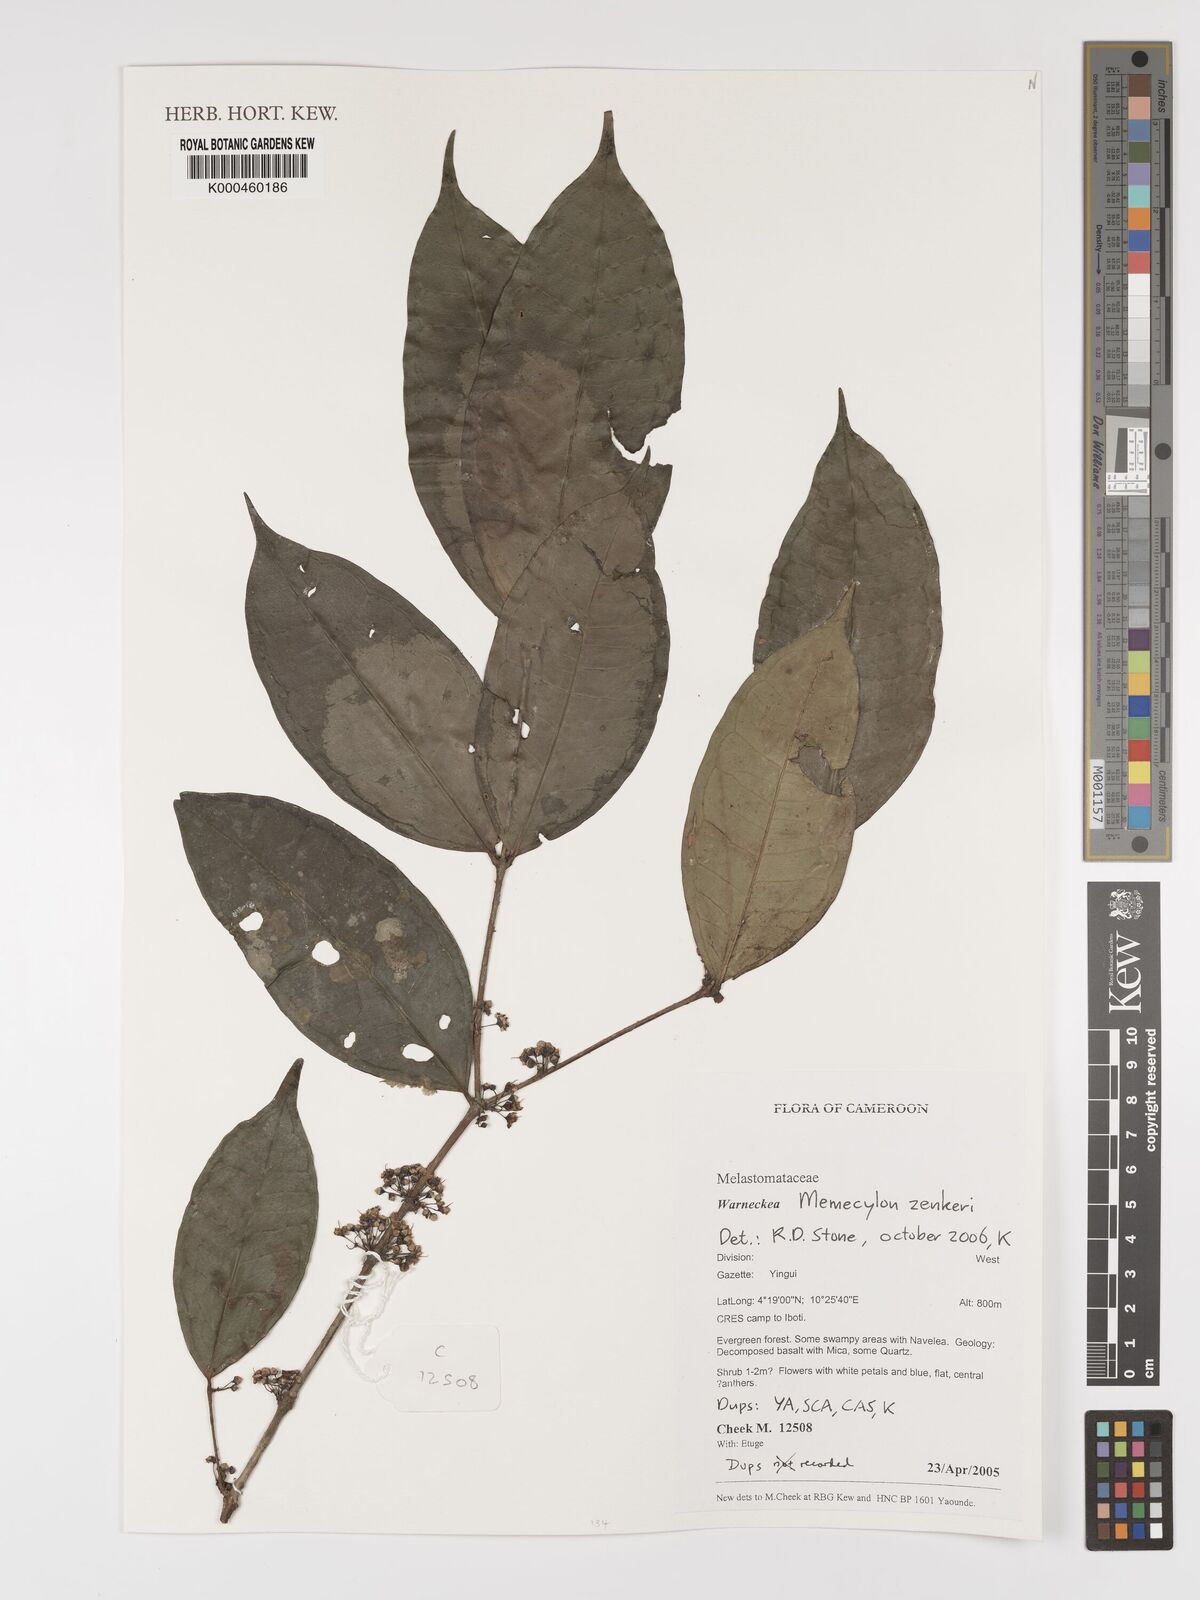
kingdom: Plantae
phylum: Tracheophyta
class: Magnoliopsida
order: Myrtales
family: Melastomataceae
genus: Memecylon
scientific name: Memecylon zenkeri
